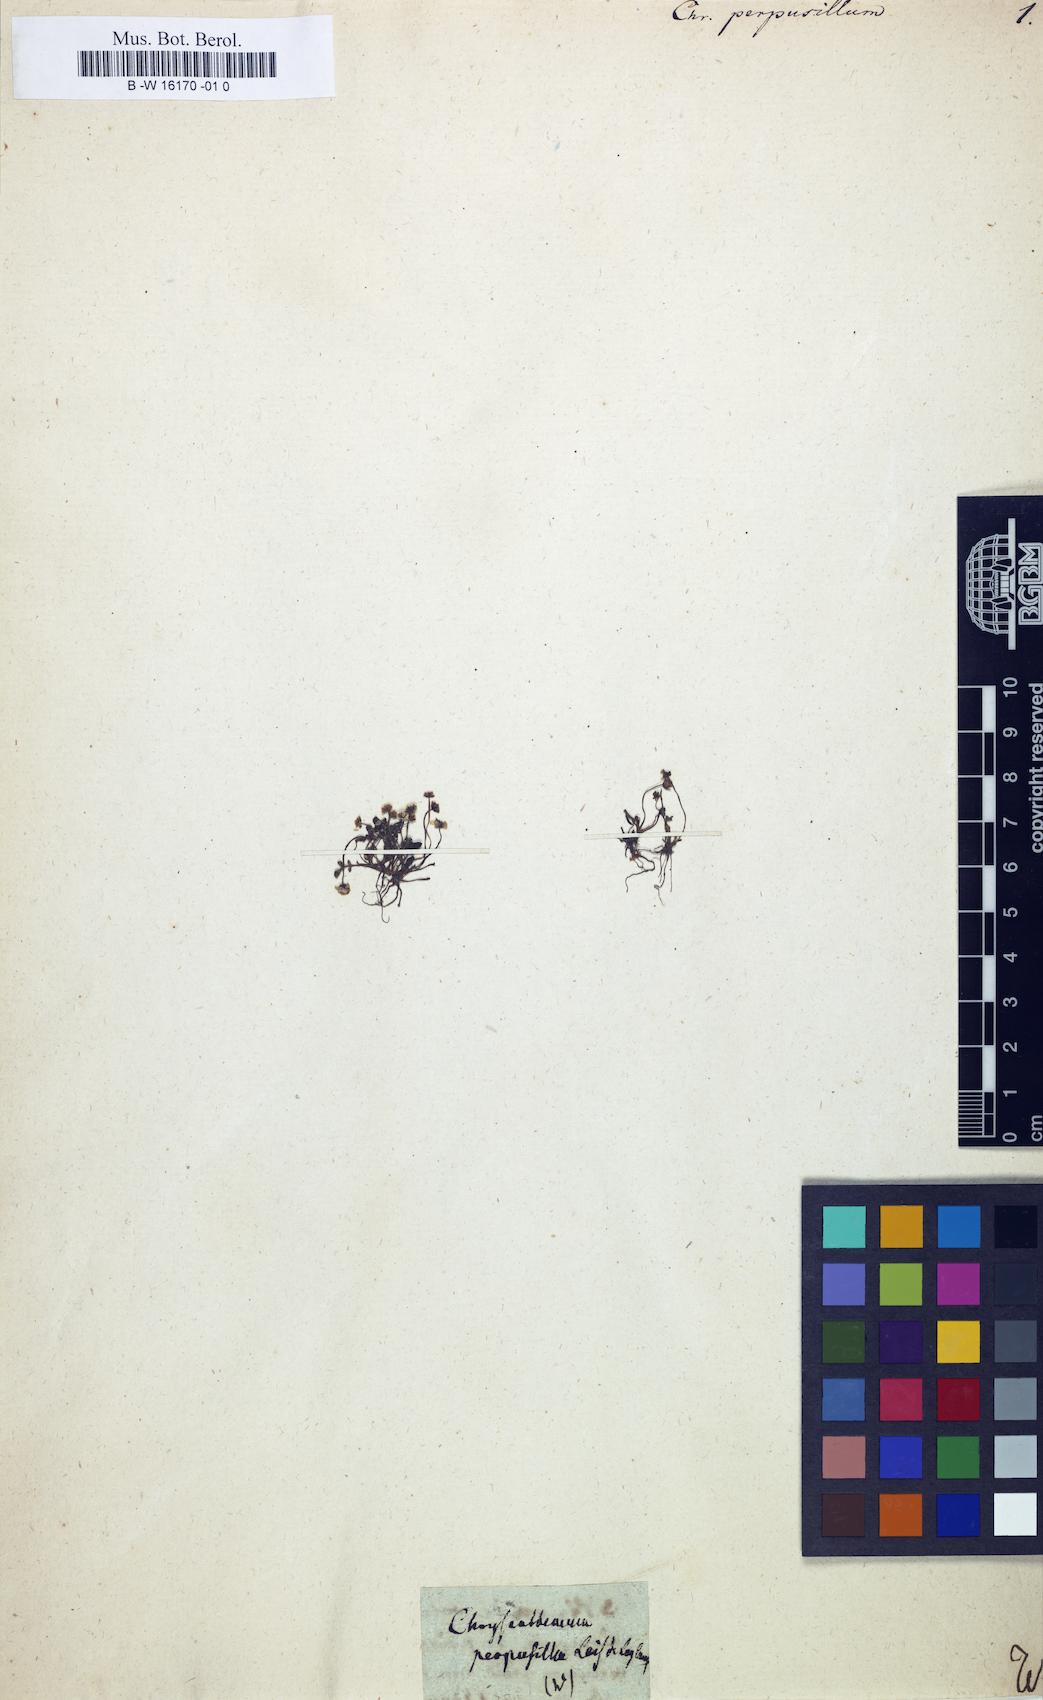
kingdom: Plantae
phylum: Tracheophyta
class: Magnoliopsida
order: Asterales
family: Asteraceae
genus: Nananthea
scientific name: Nananthea perpusilla
